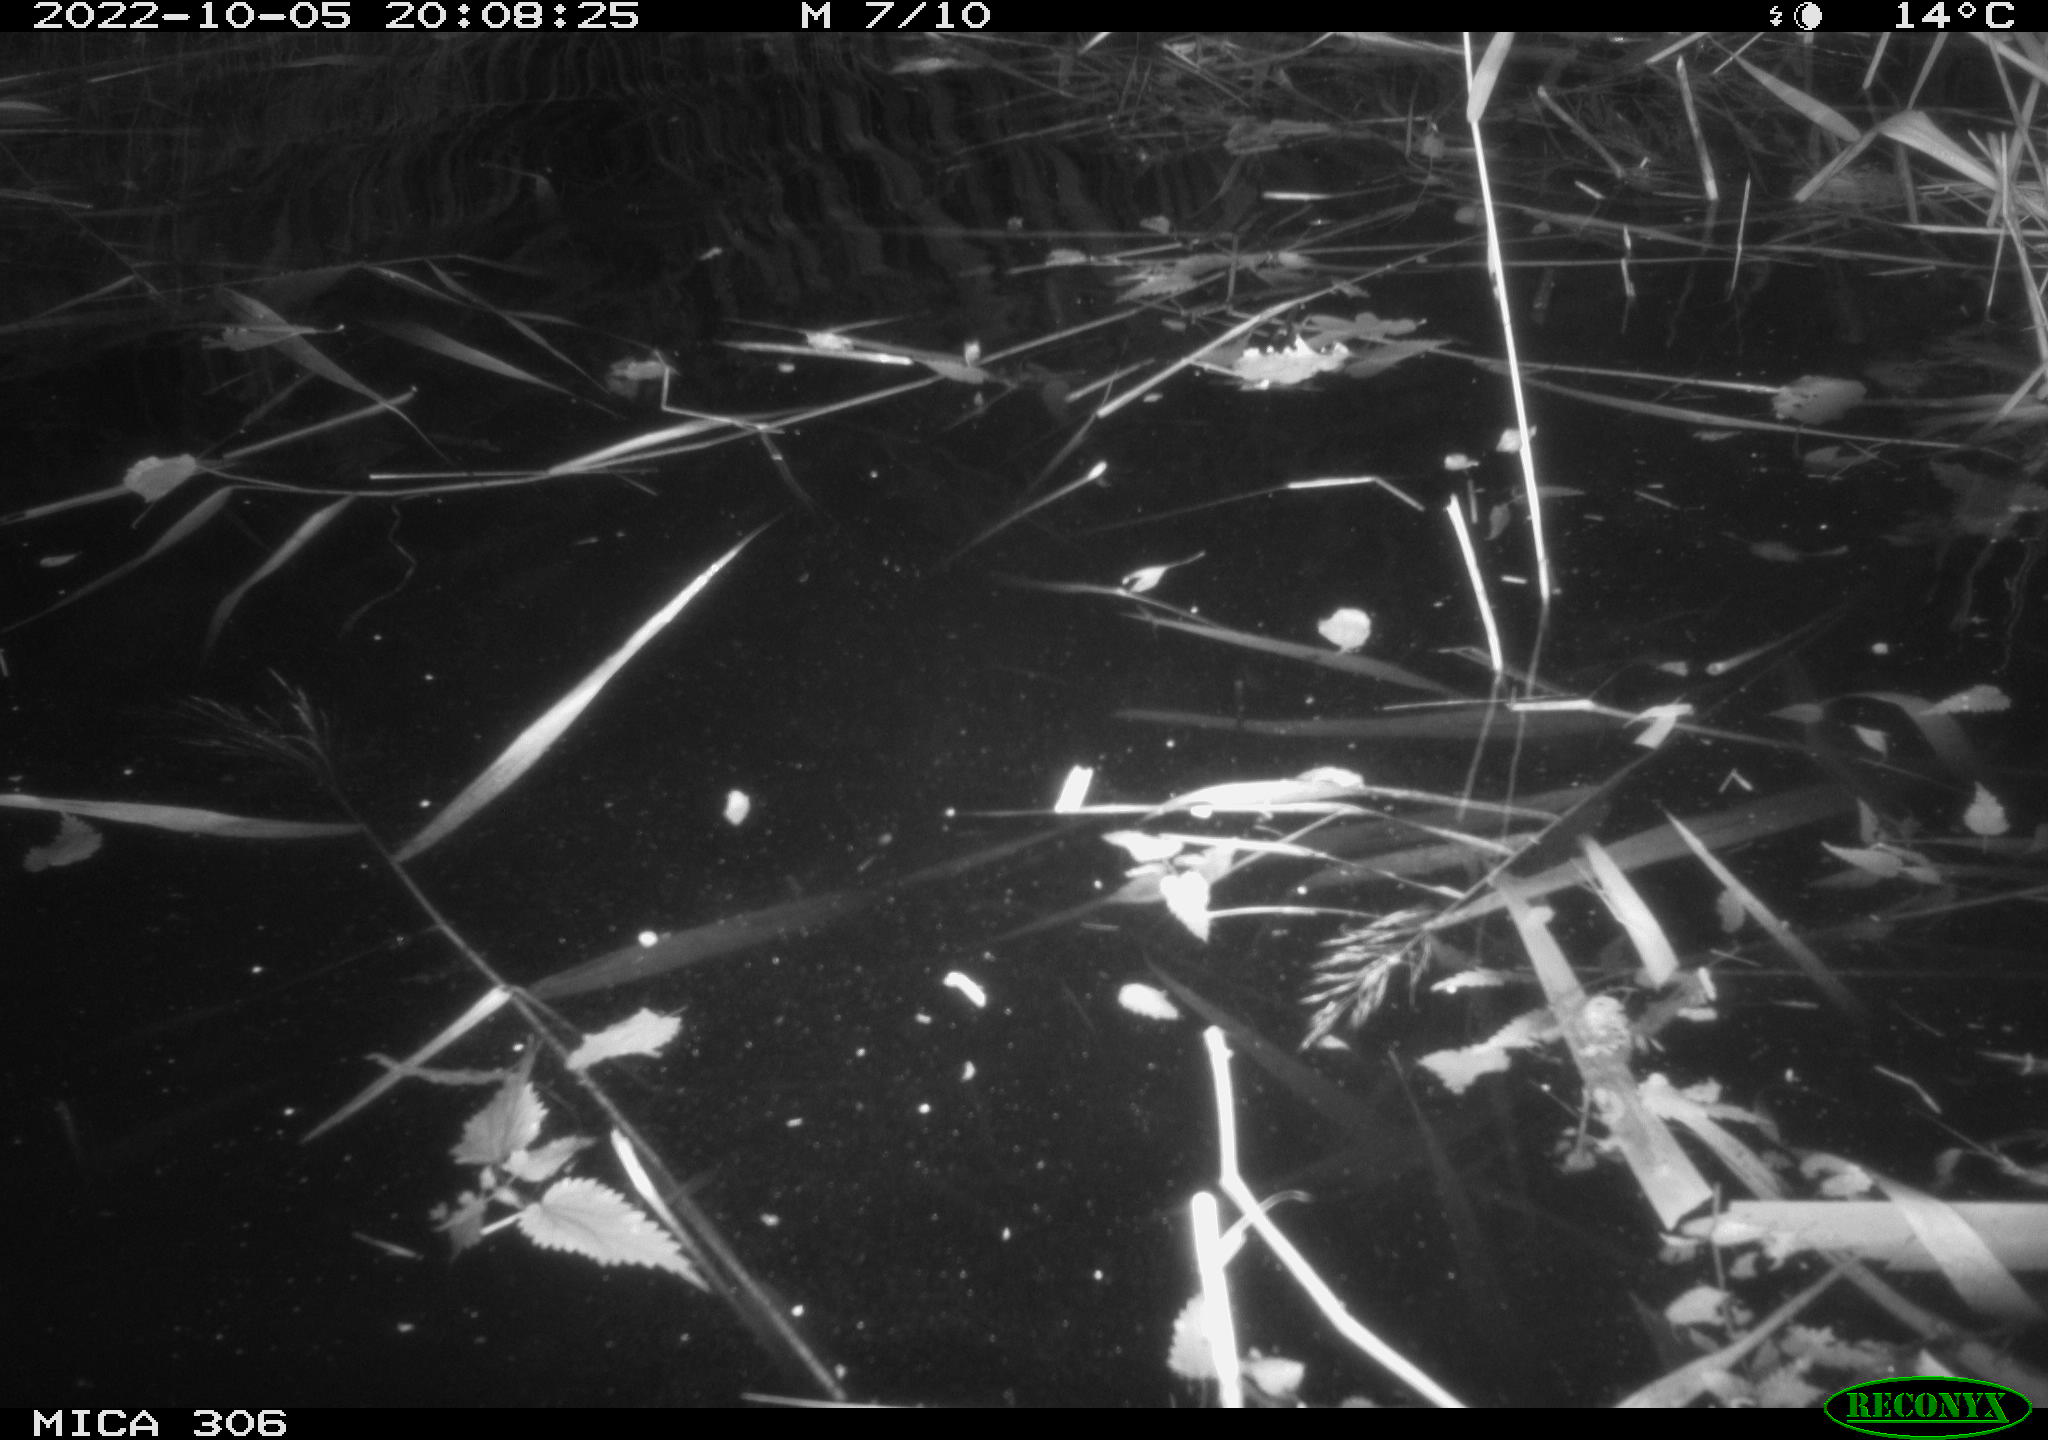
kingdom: Animalia
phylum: Chordata
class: Mammalia
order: Rodentia
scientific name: Rodentia
